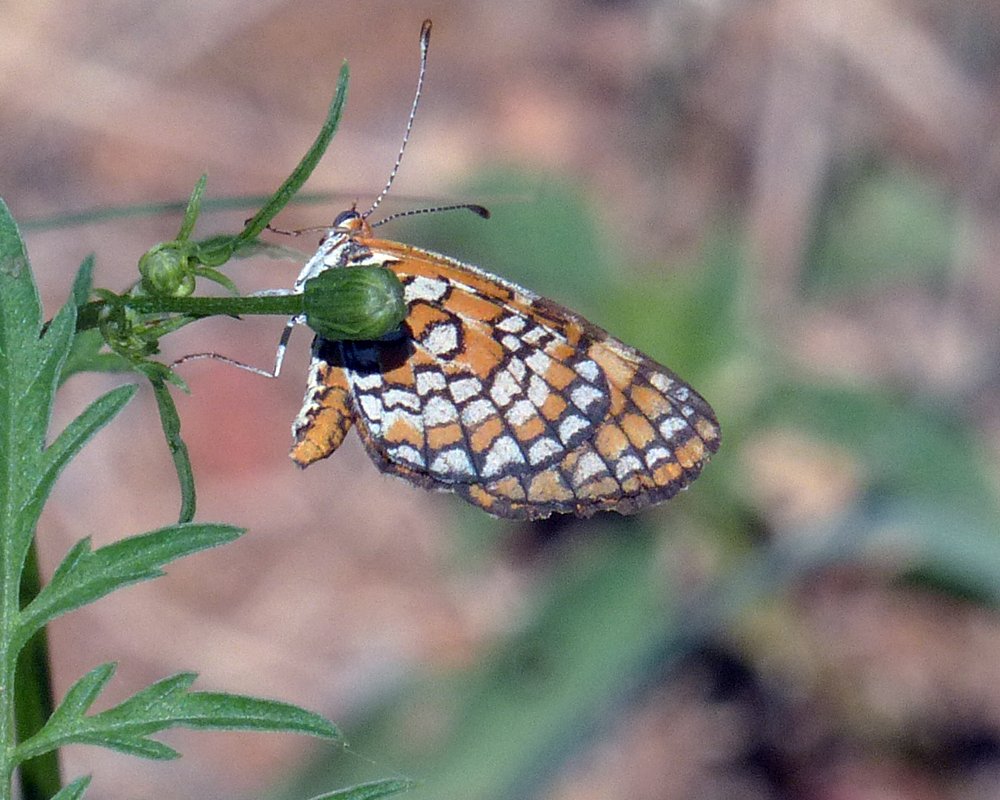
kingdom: Animalia
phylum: Arthropoda
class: Insecta
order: Lepidoptera
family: Nymphalidae
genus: Dymasia
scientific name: Dymasia dymas
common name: Tiny Checkerspot
